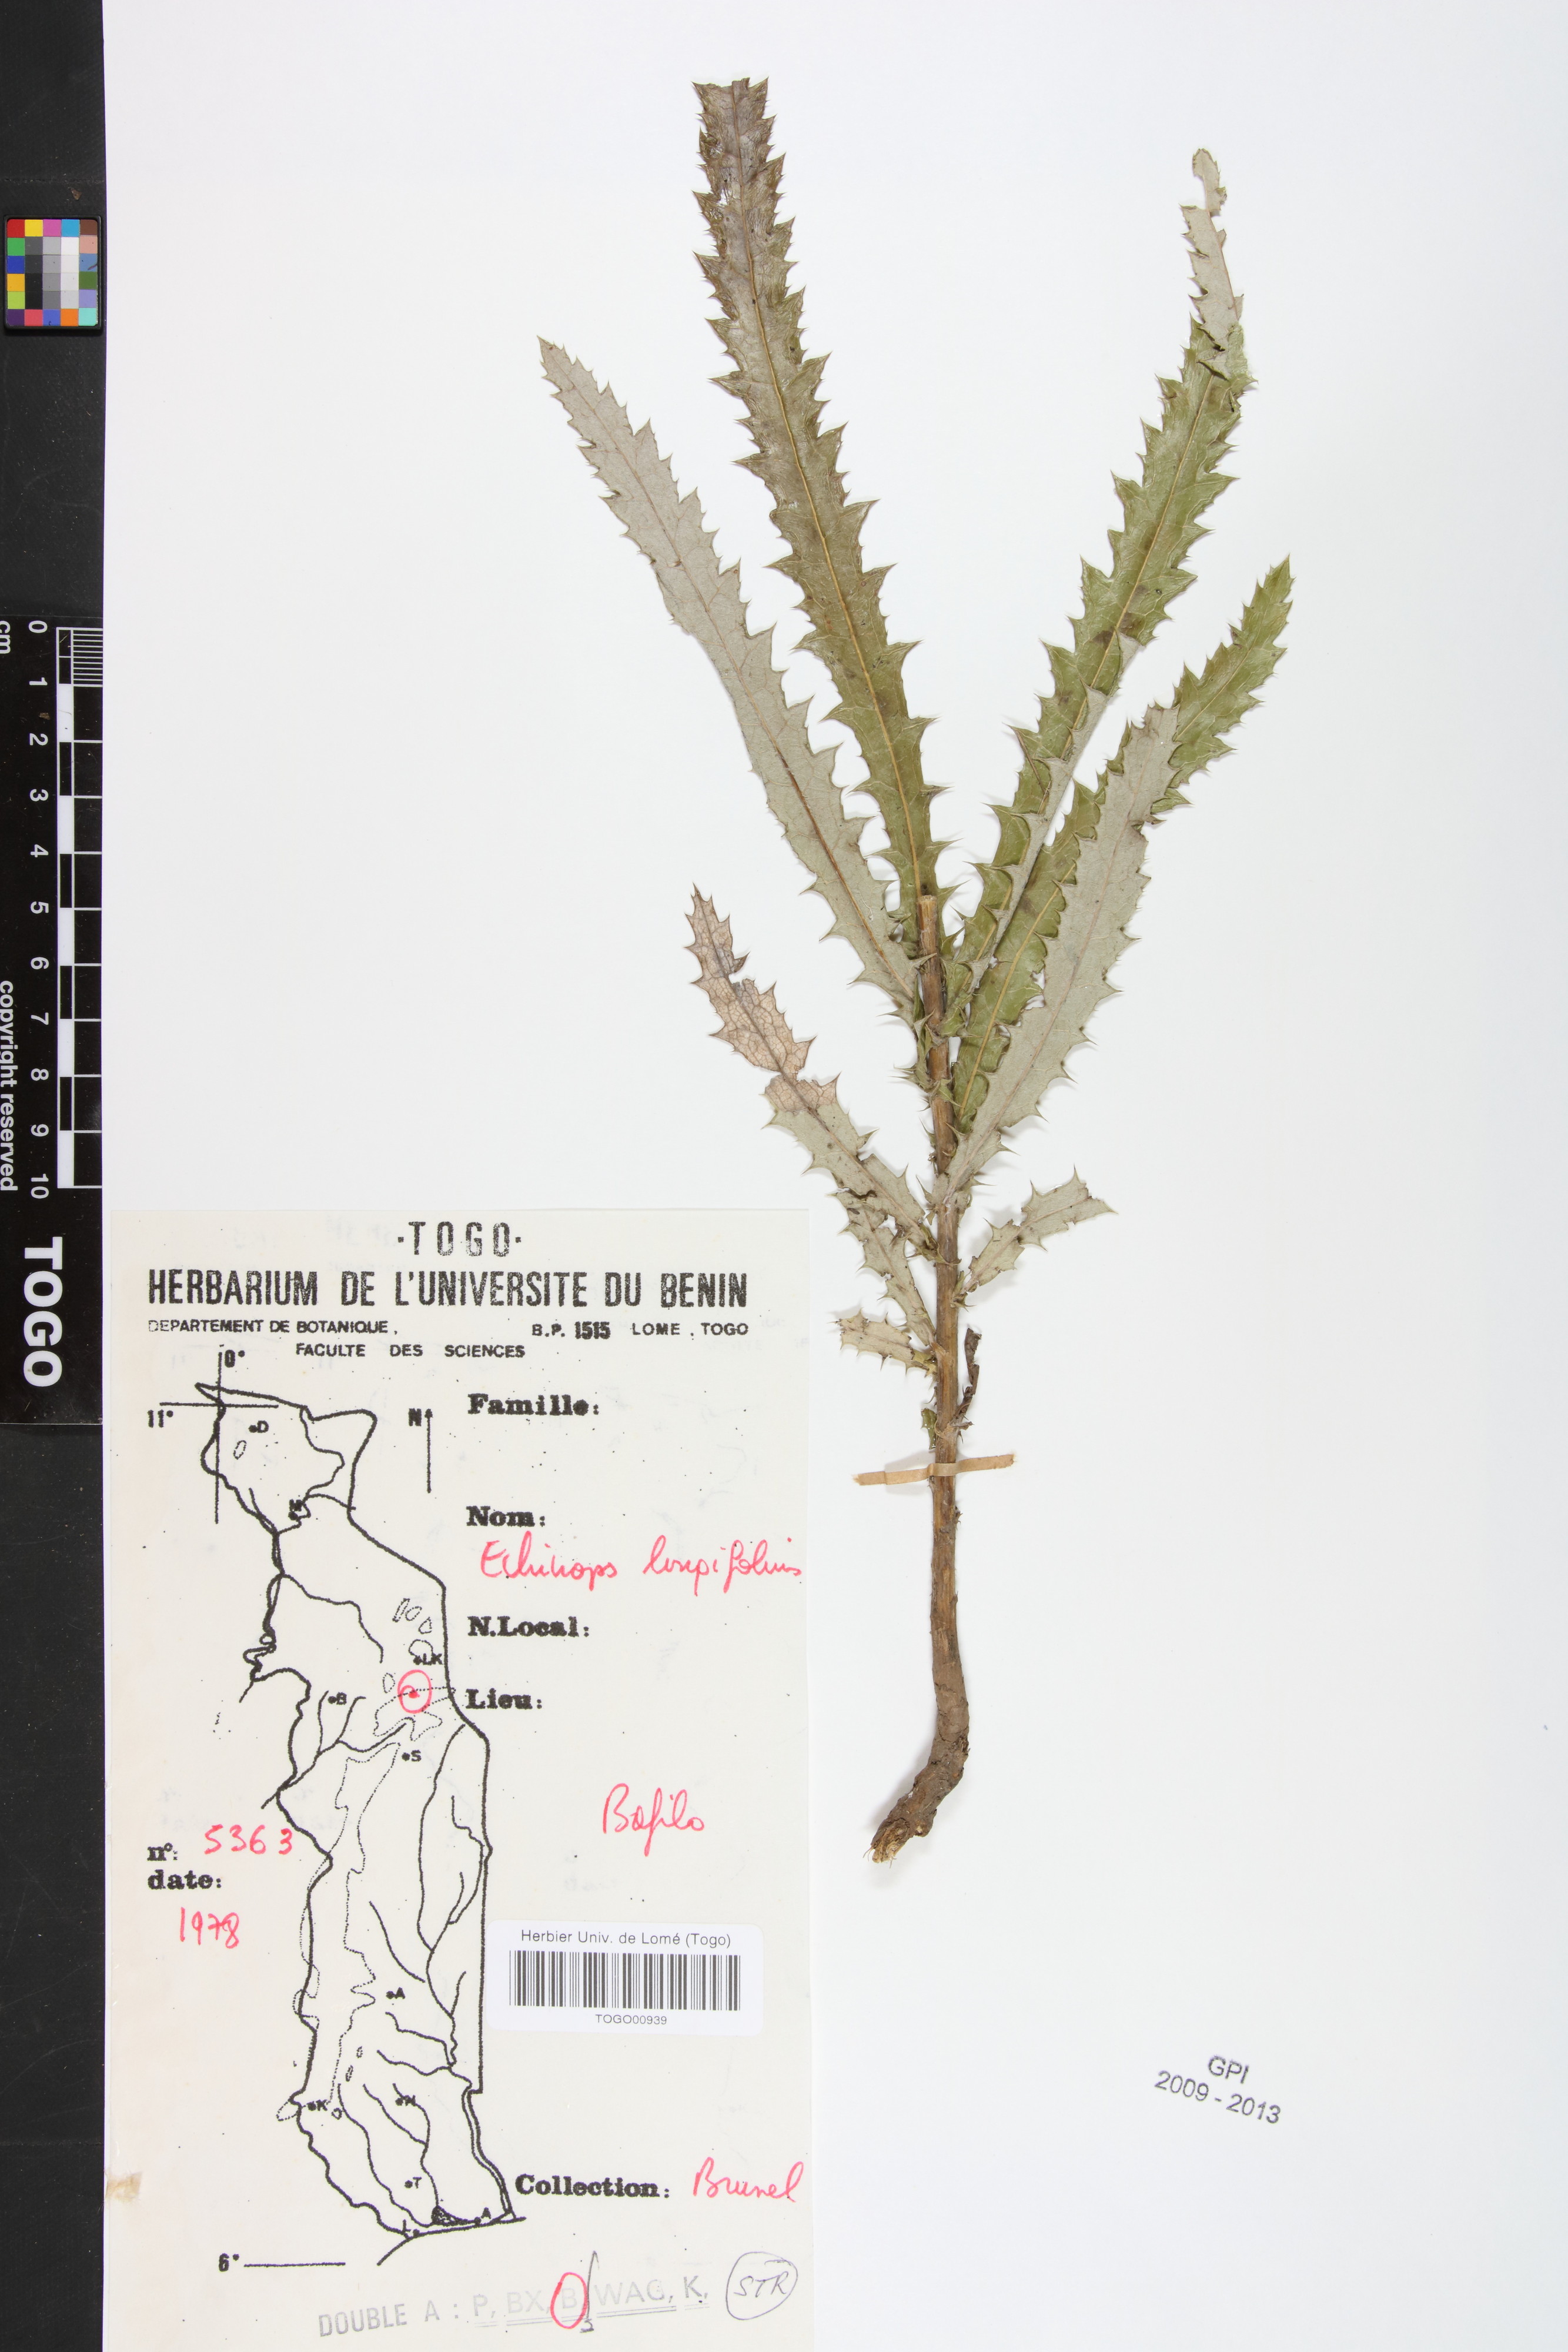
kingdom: Plantae
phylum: Tracheophyta
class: Magnoliopsida
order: Asterales
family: Asteraceae
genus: Echinops
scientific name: Echinops longifolius
